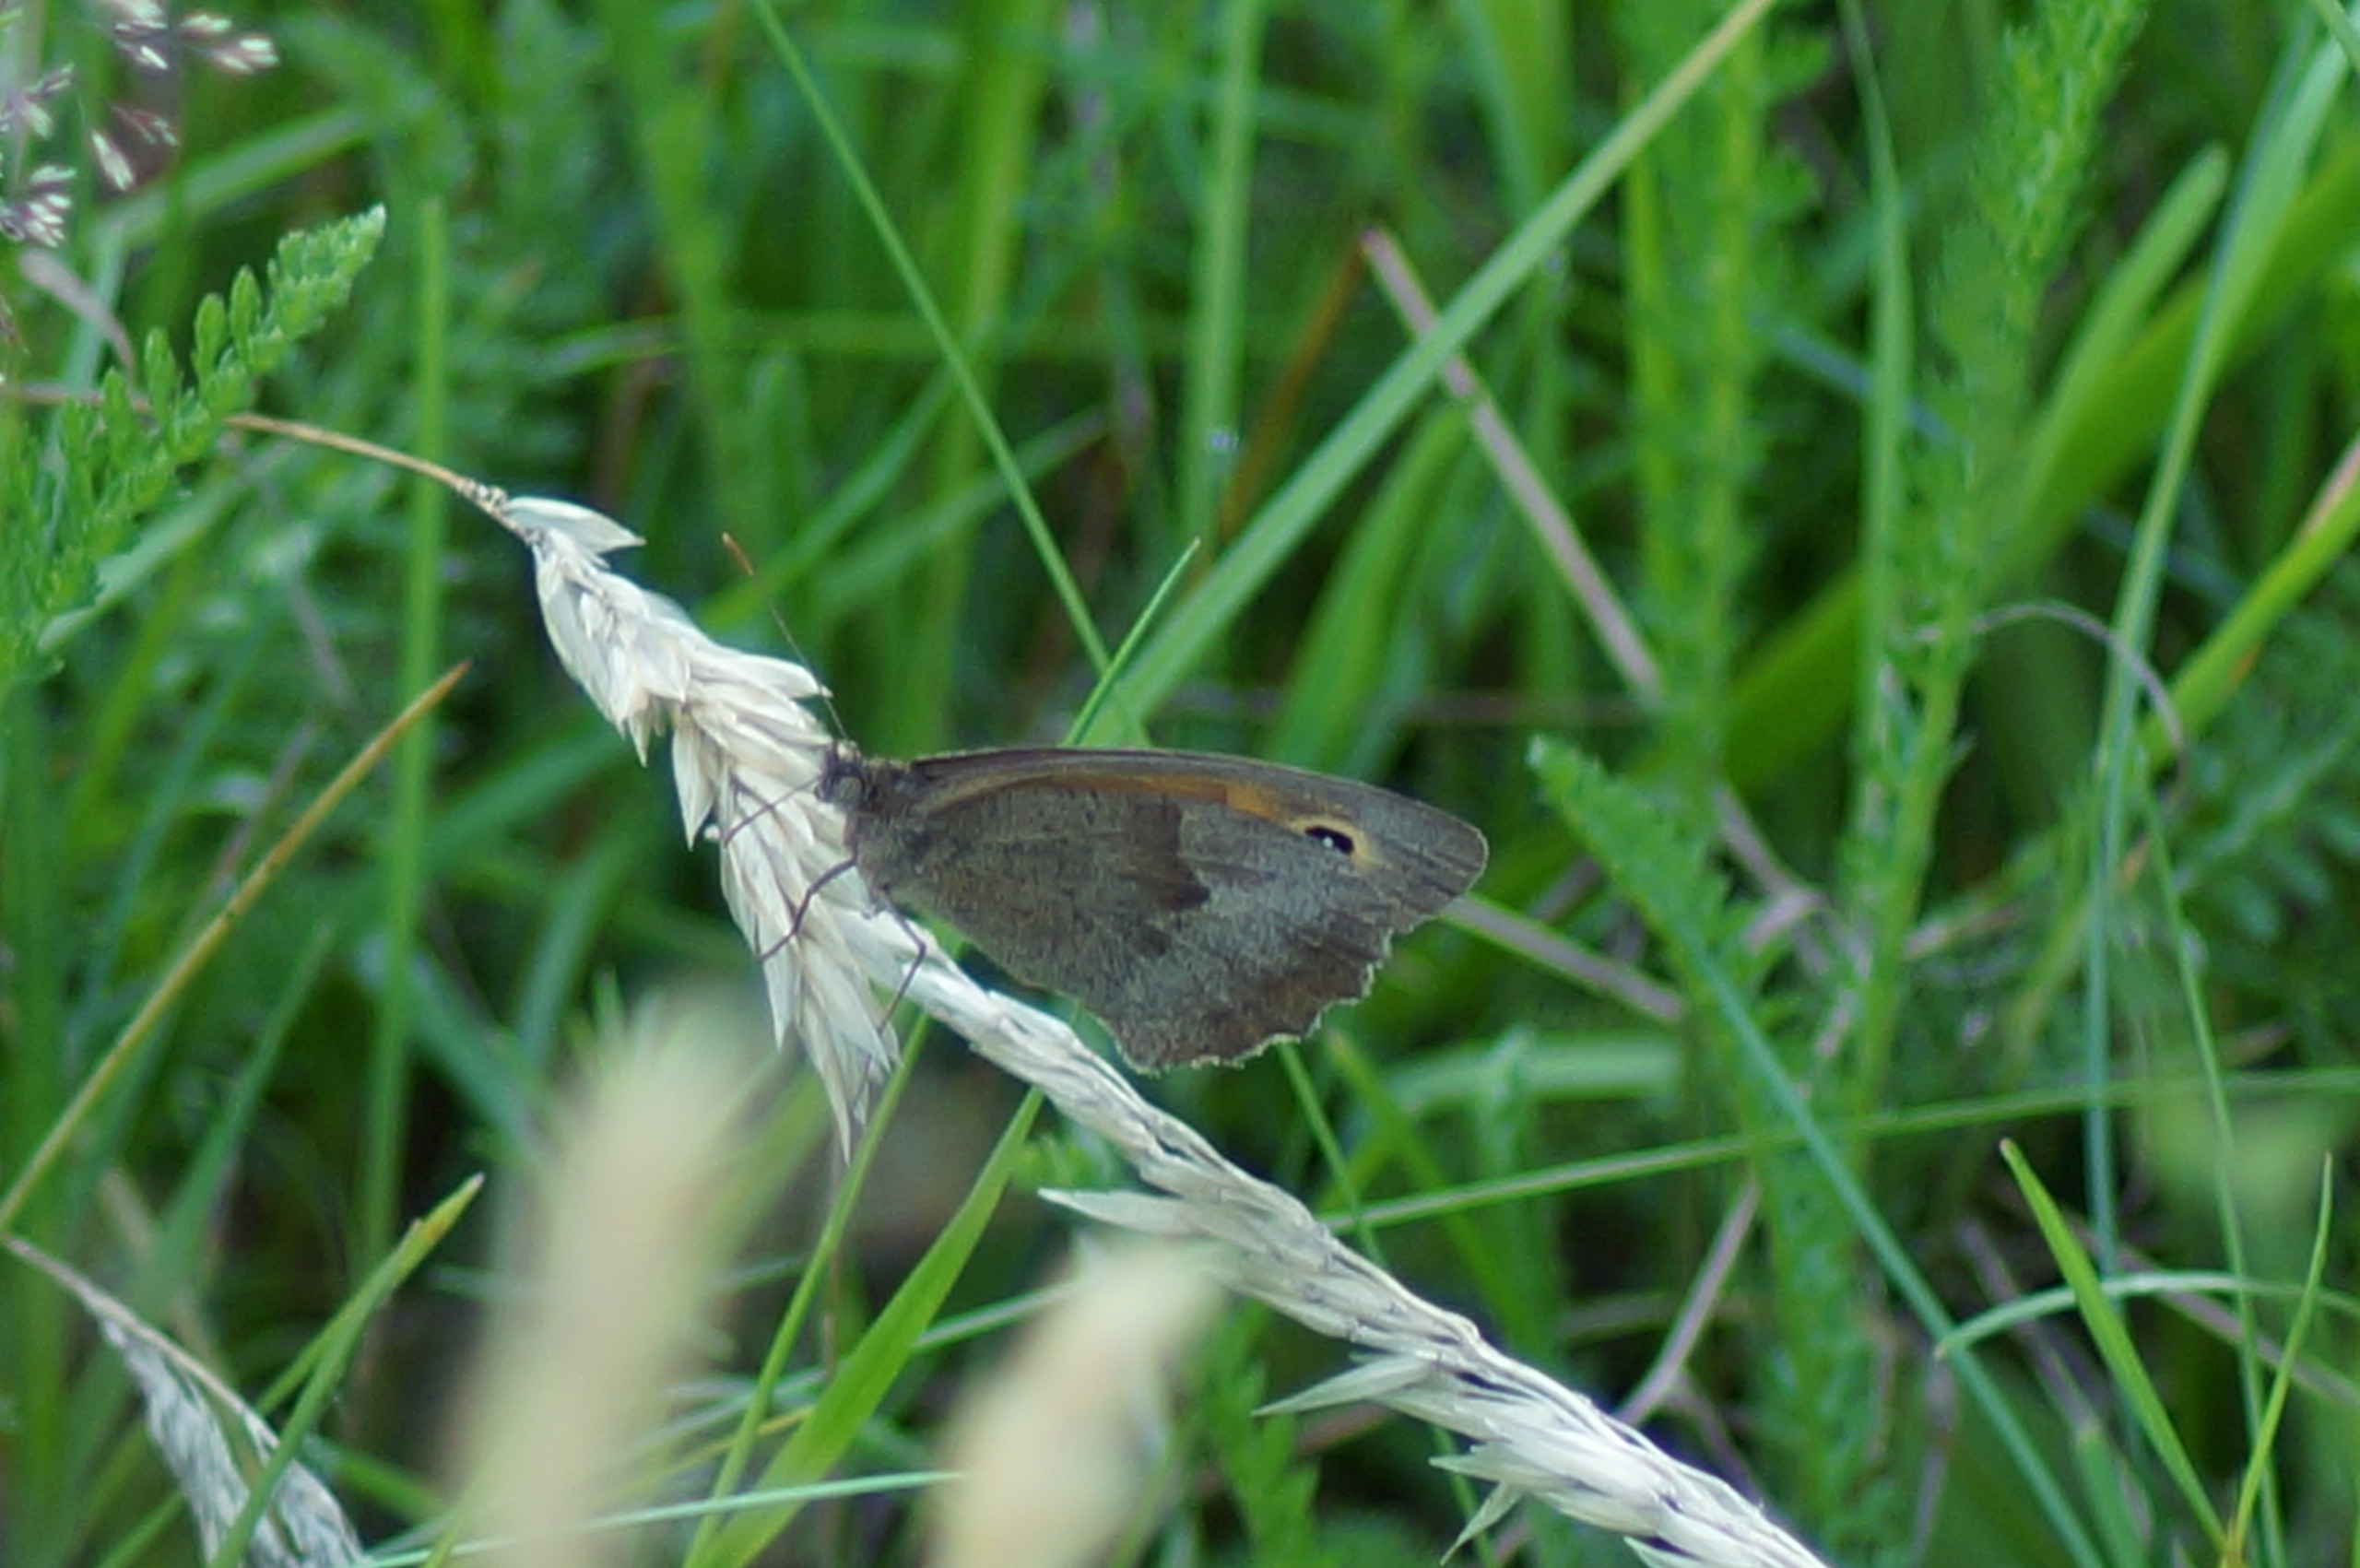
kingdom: Animalia
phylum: Arthropoda
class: Insecta
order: Lepidoptera
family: Nymphalidae
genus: Maniola
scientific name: Maniola jurtina
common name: Græsrandøje
